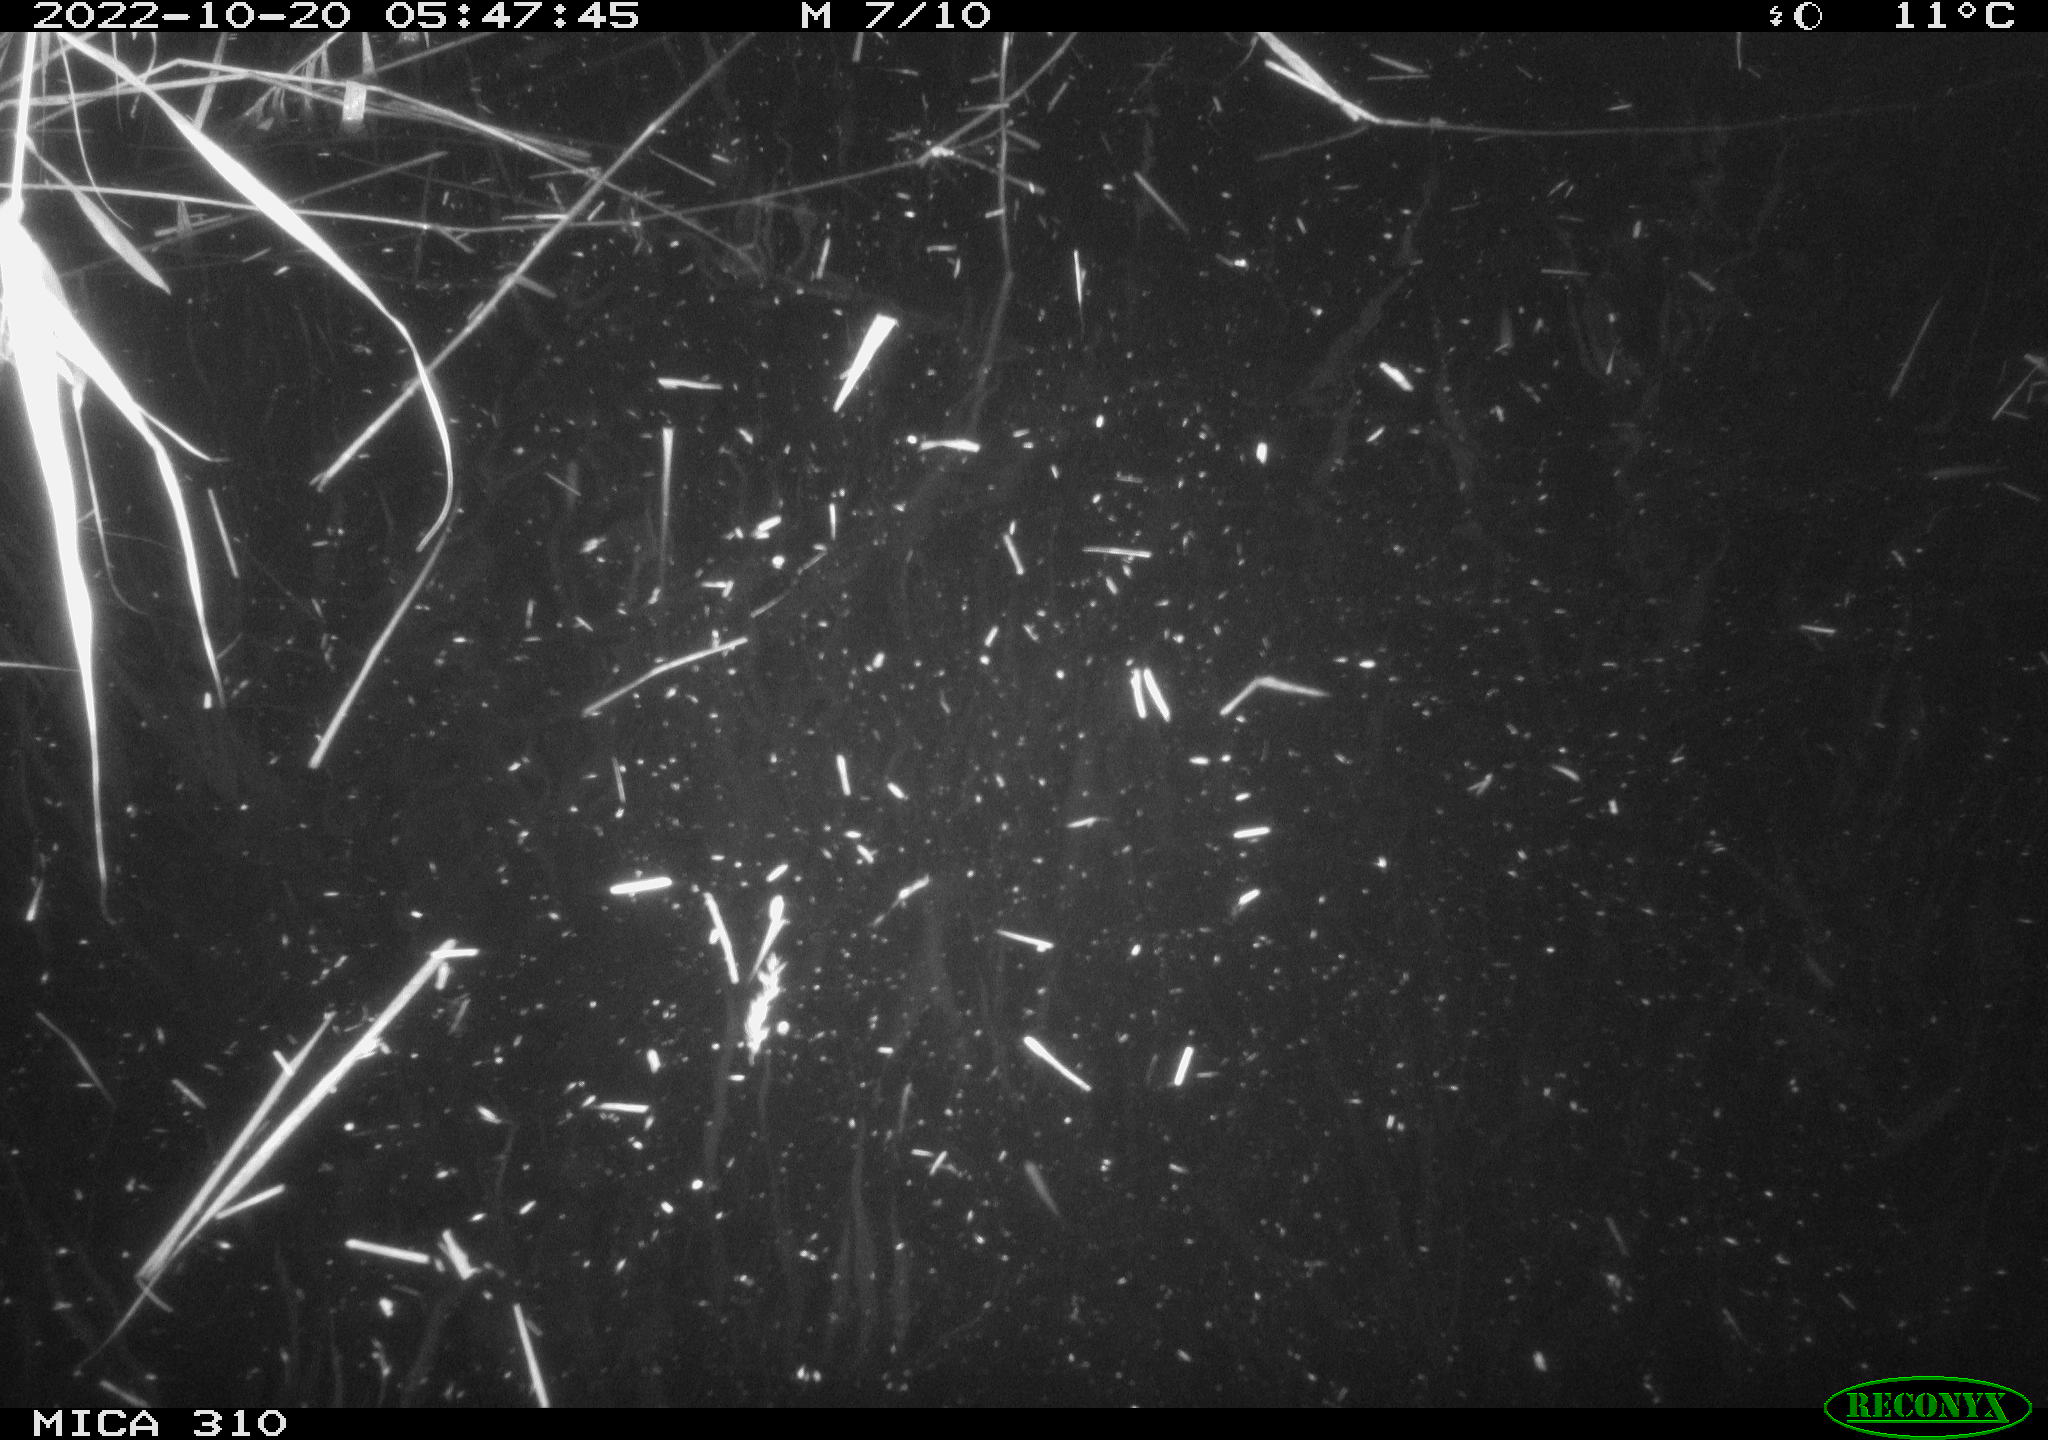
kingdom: Animalia
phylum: Chordata
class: Mammalia
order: Rodentia
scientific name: Rodentia
